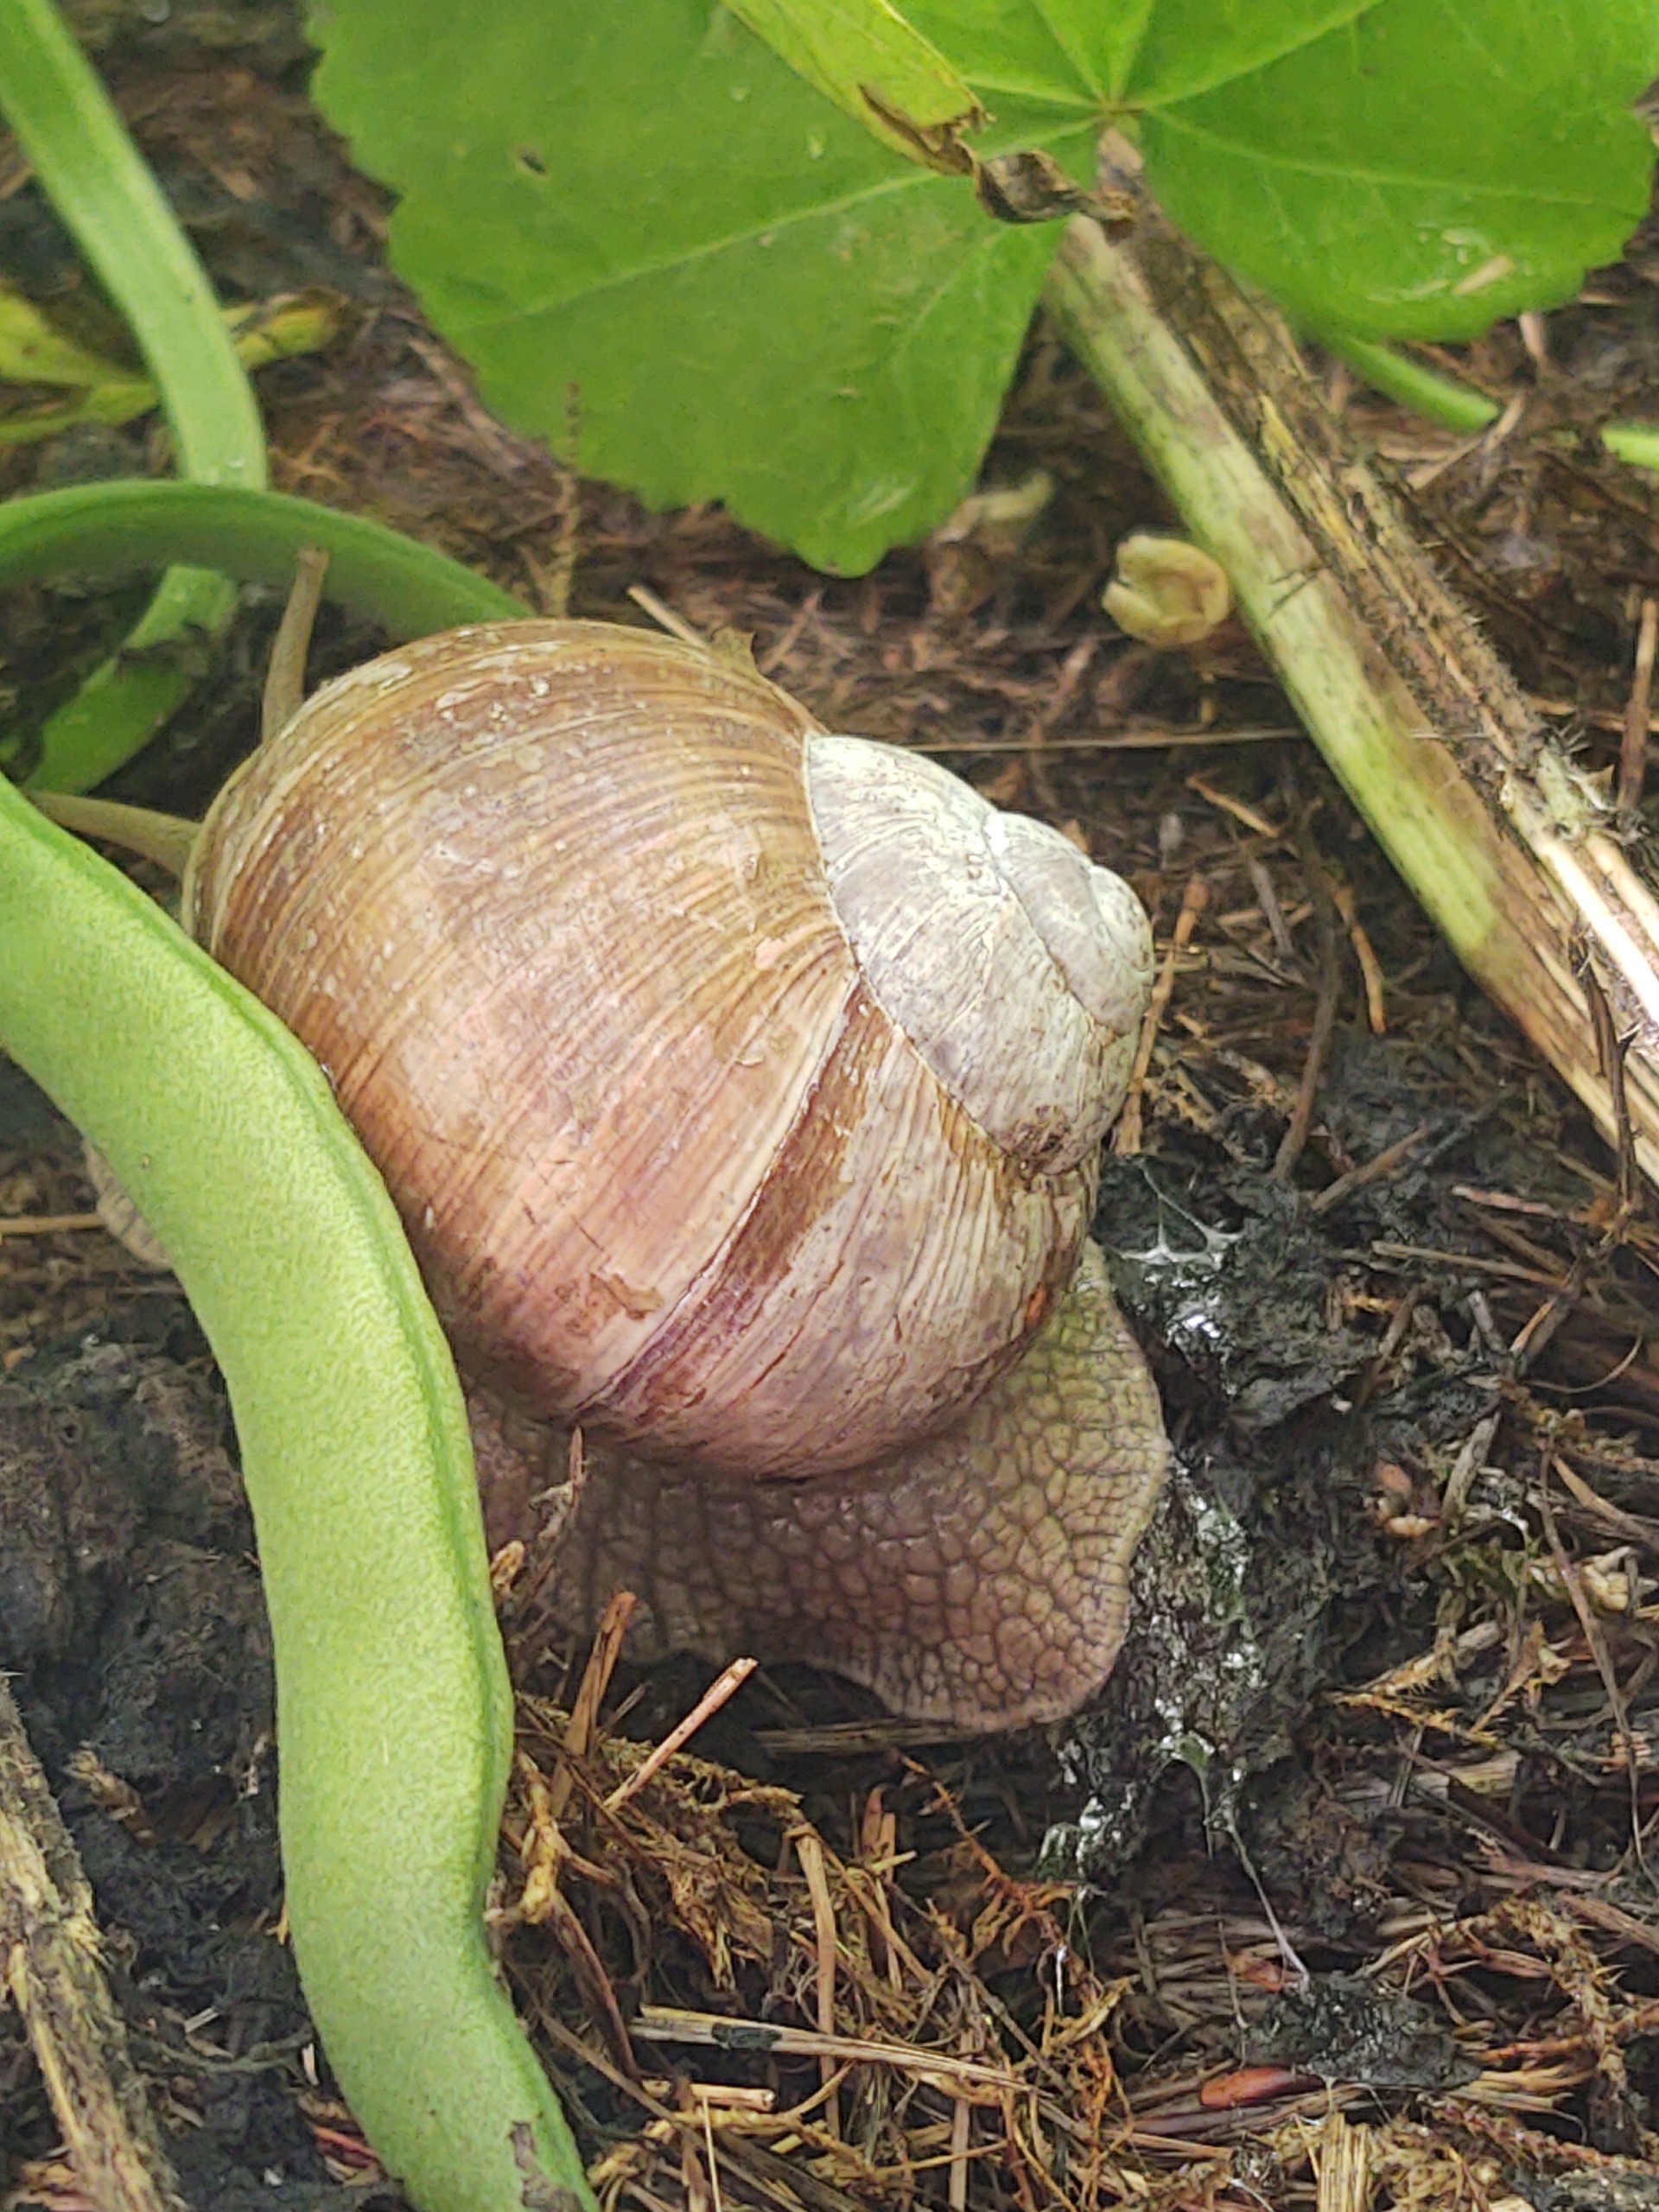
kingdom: Animalia
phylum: Mollusca
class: Gastropoda
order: Stylommatophora
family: Helicidae
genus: Helix
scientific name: Helix pomatia
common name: Vinbjergsnegl
